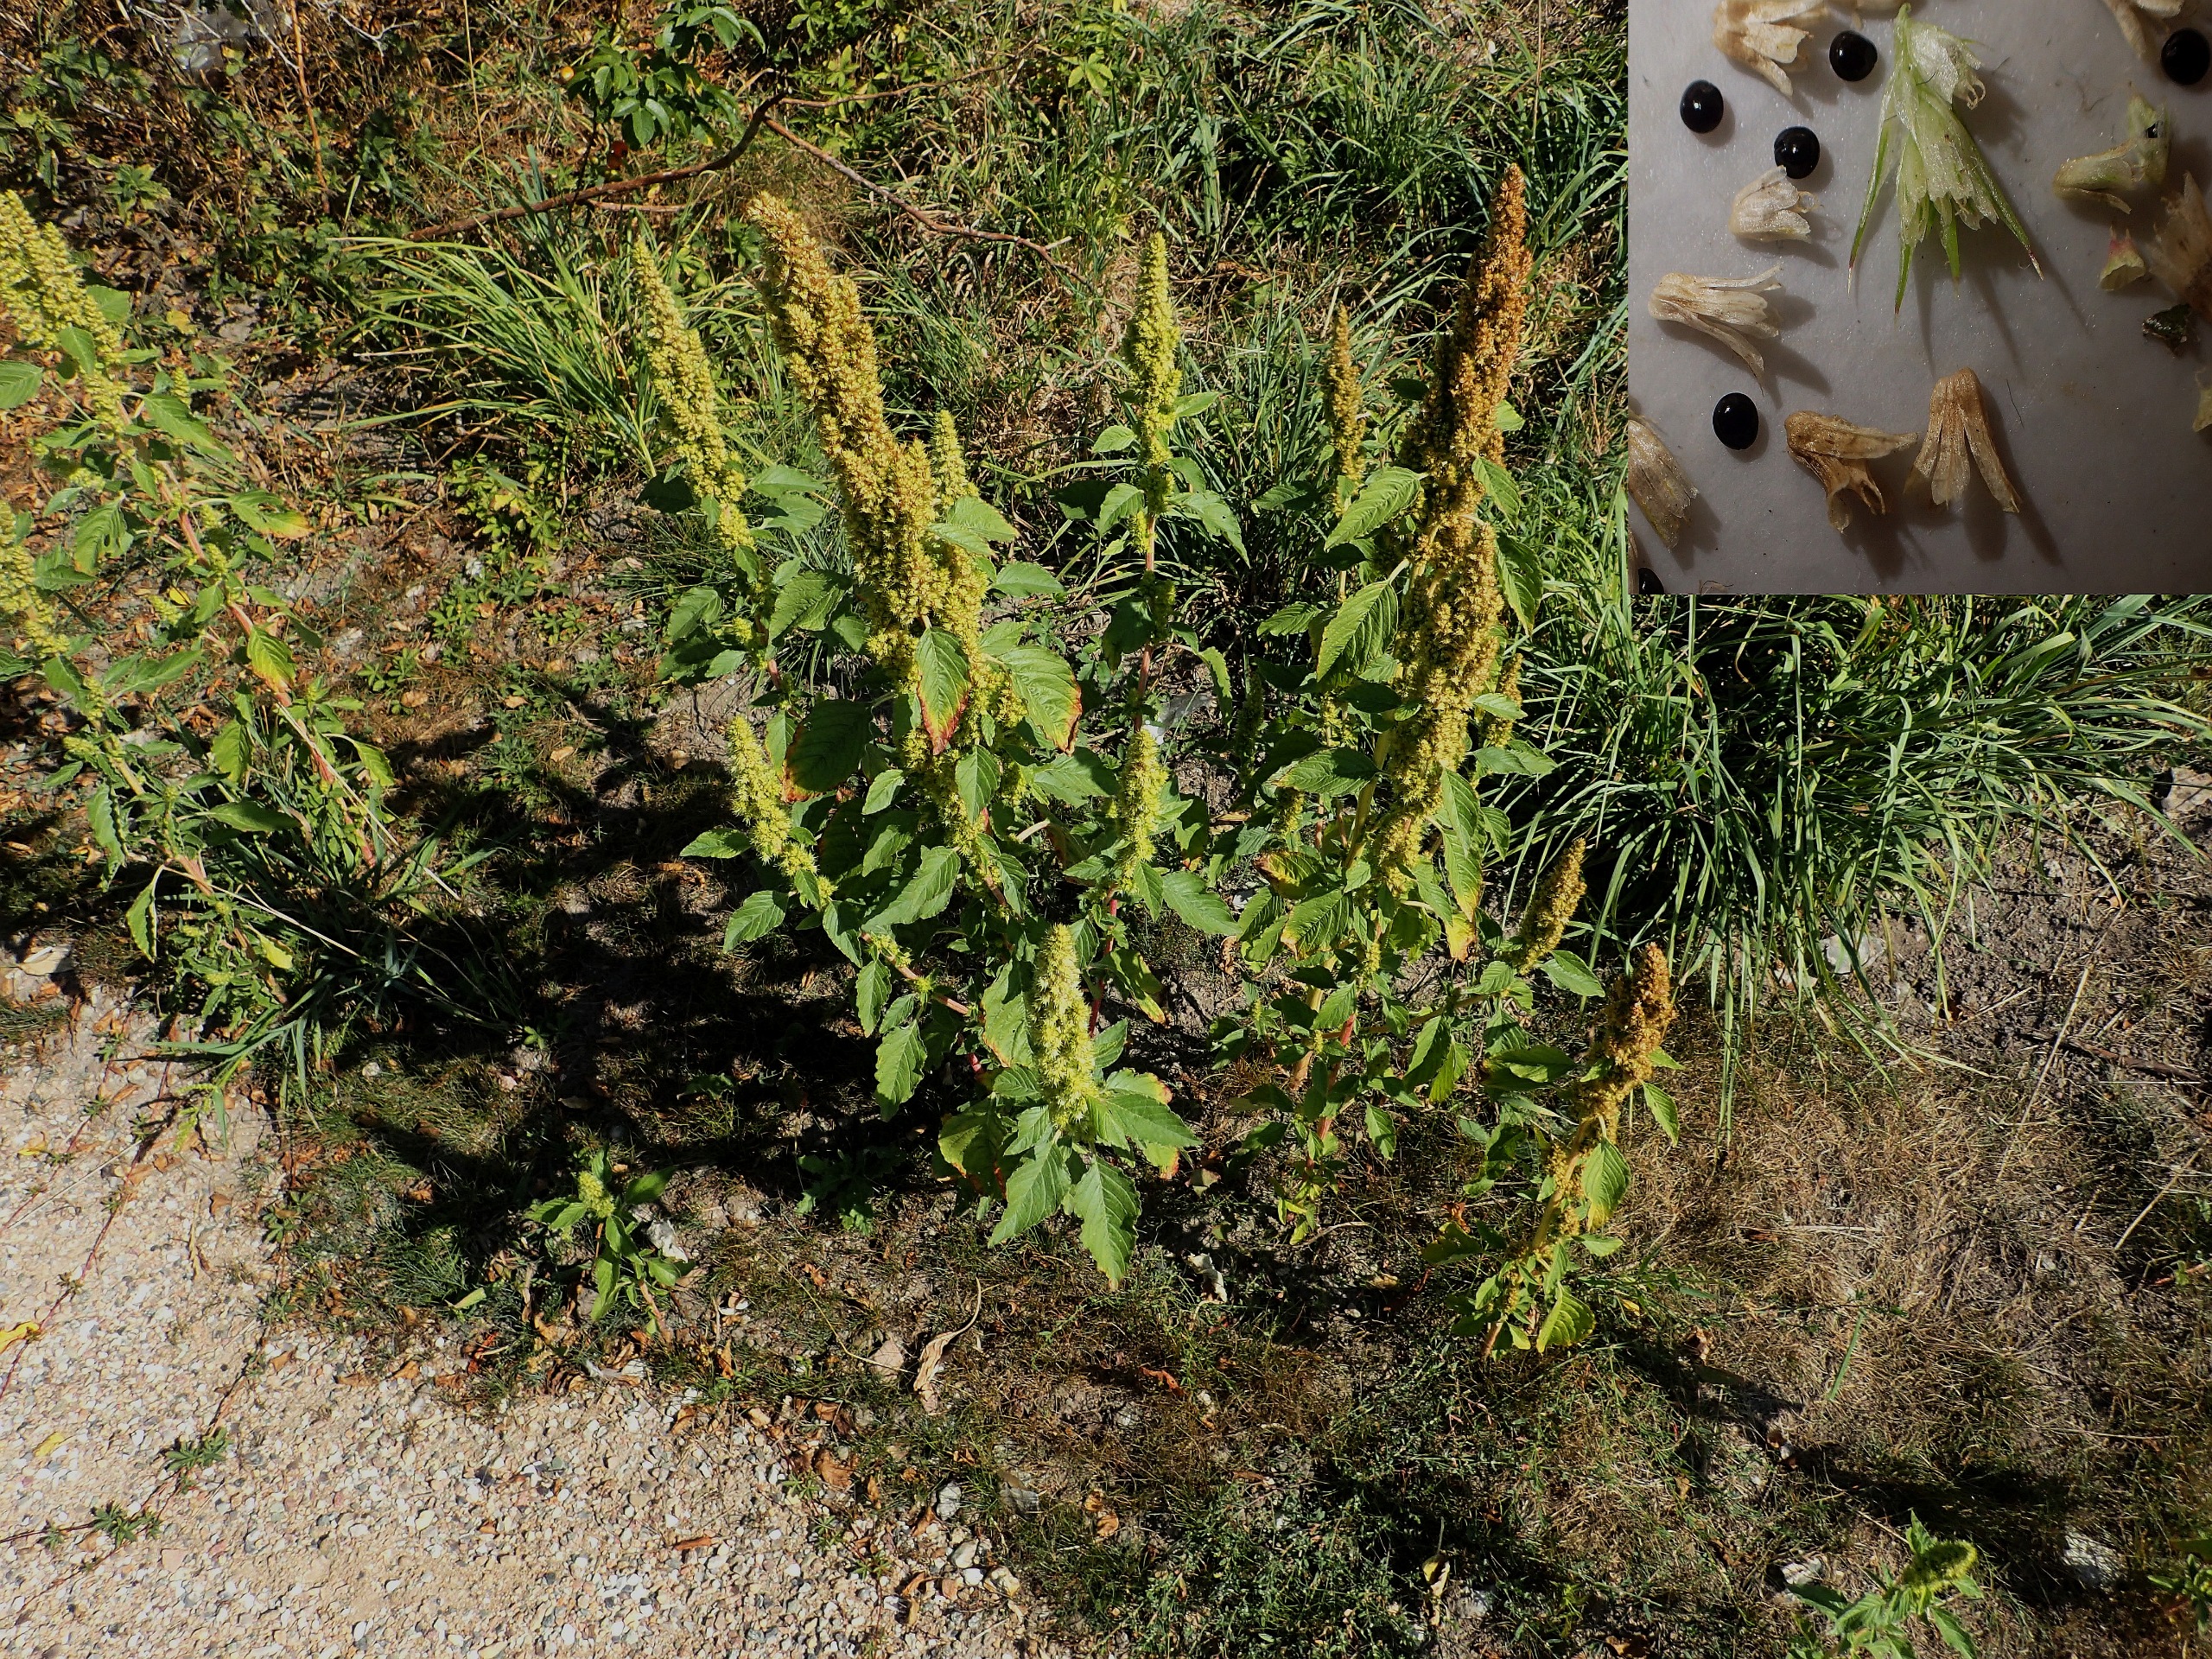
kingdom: Plantae
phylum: Tracheophyta
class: Magnoliopsida
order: Caryophyllales
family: Amaranthaceae
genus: Amaranthus
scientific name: Amaranthus retroflexus
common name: Opret amarant
